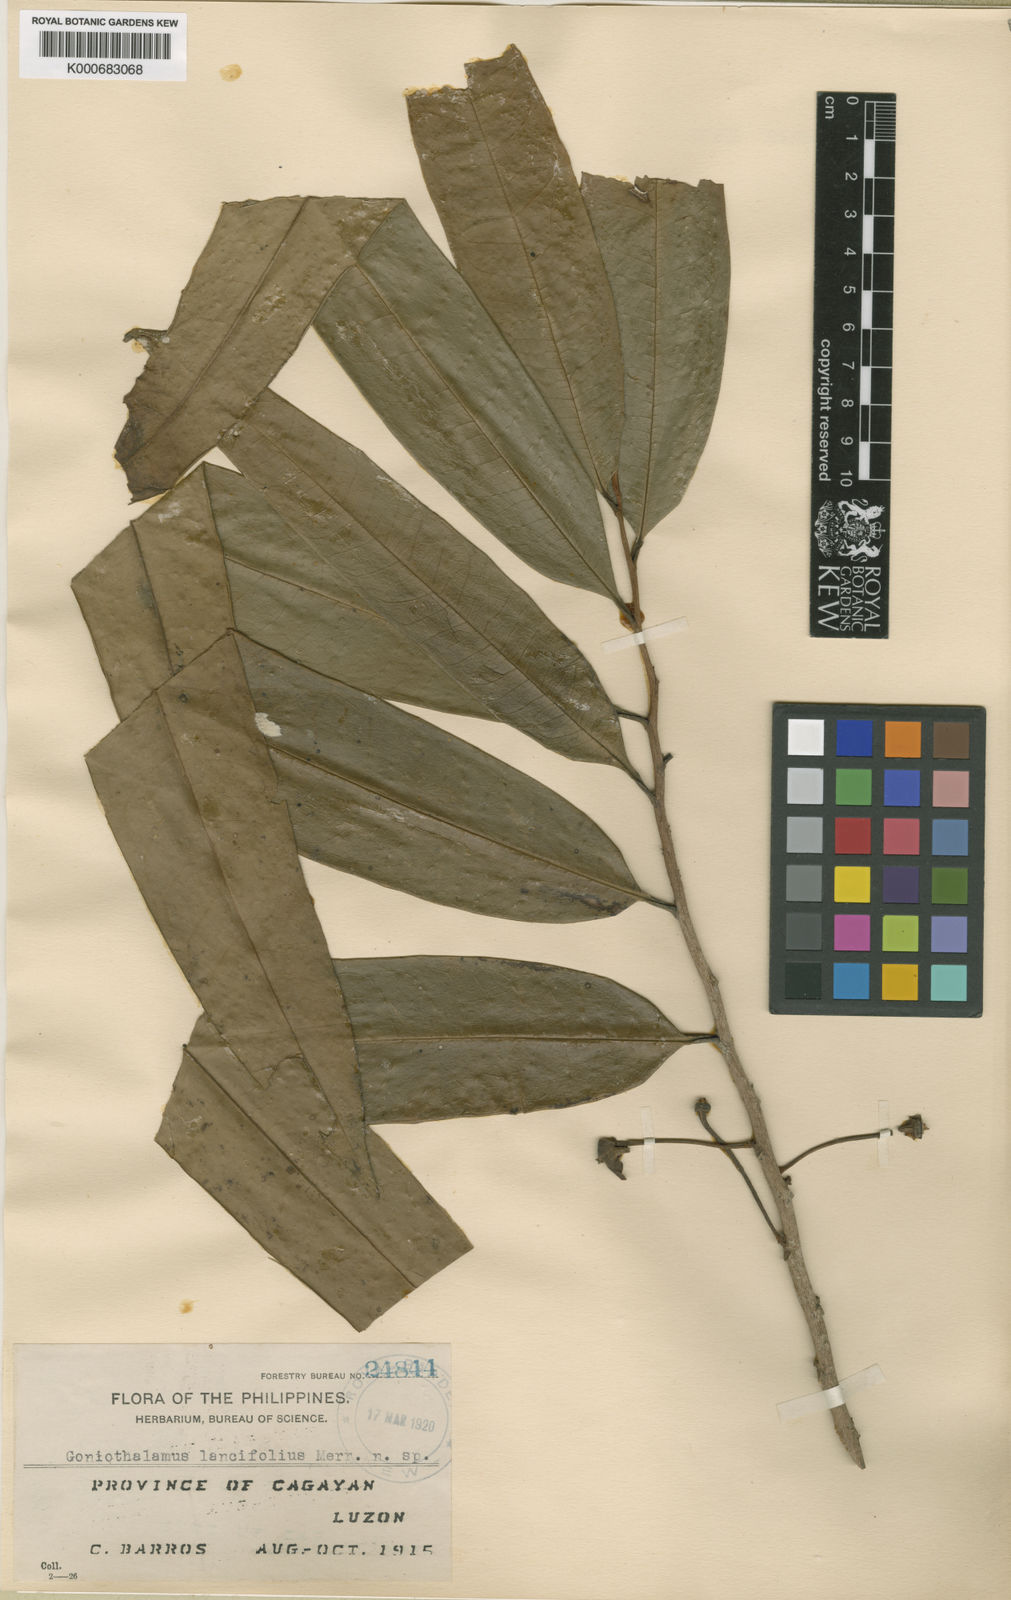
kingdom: Plantae
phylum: Tracheophyta
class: Magnoliopsida
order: Magnoliales
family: Annonaceae
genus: Goniothalamus
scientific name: Goniothalamus lancifolius
